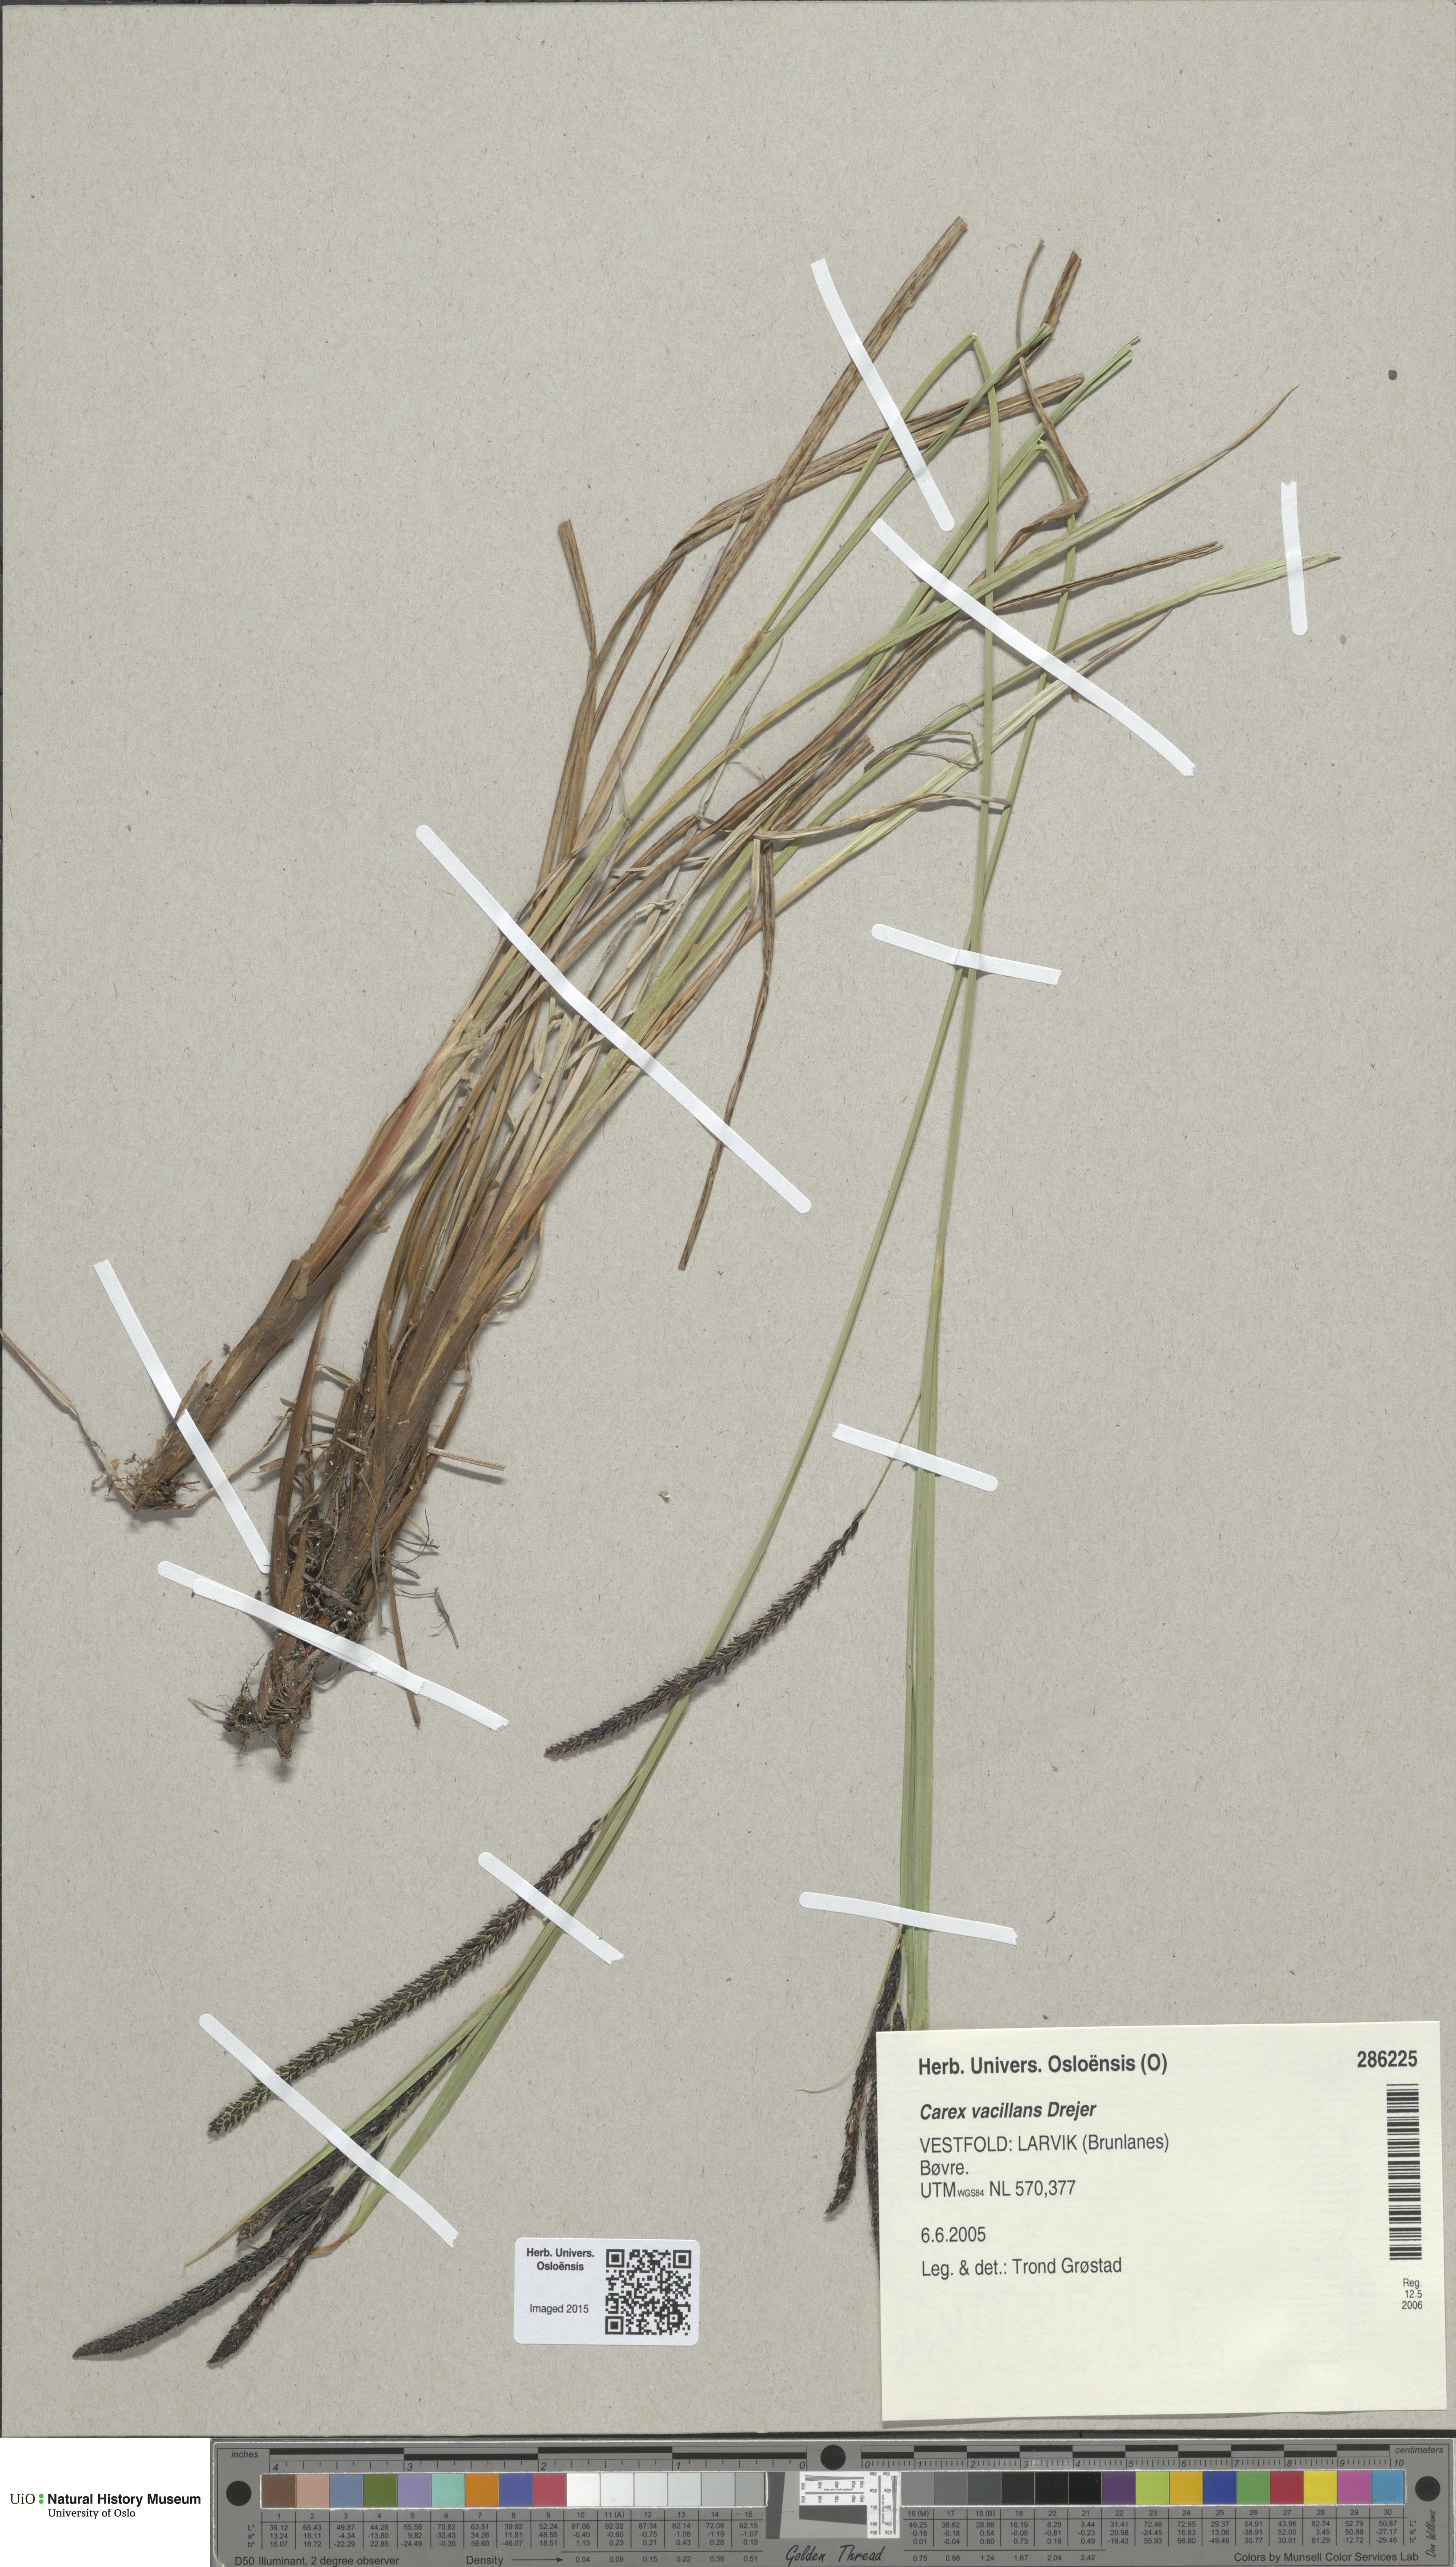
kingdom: Plantae
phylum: Tracheophyta
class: Liliopsida
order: Poales
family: Cyperaceae
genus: Carex
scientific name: Carex vacillans
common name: Sedge
